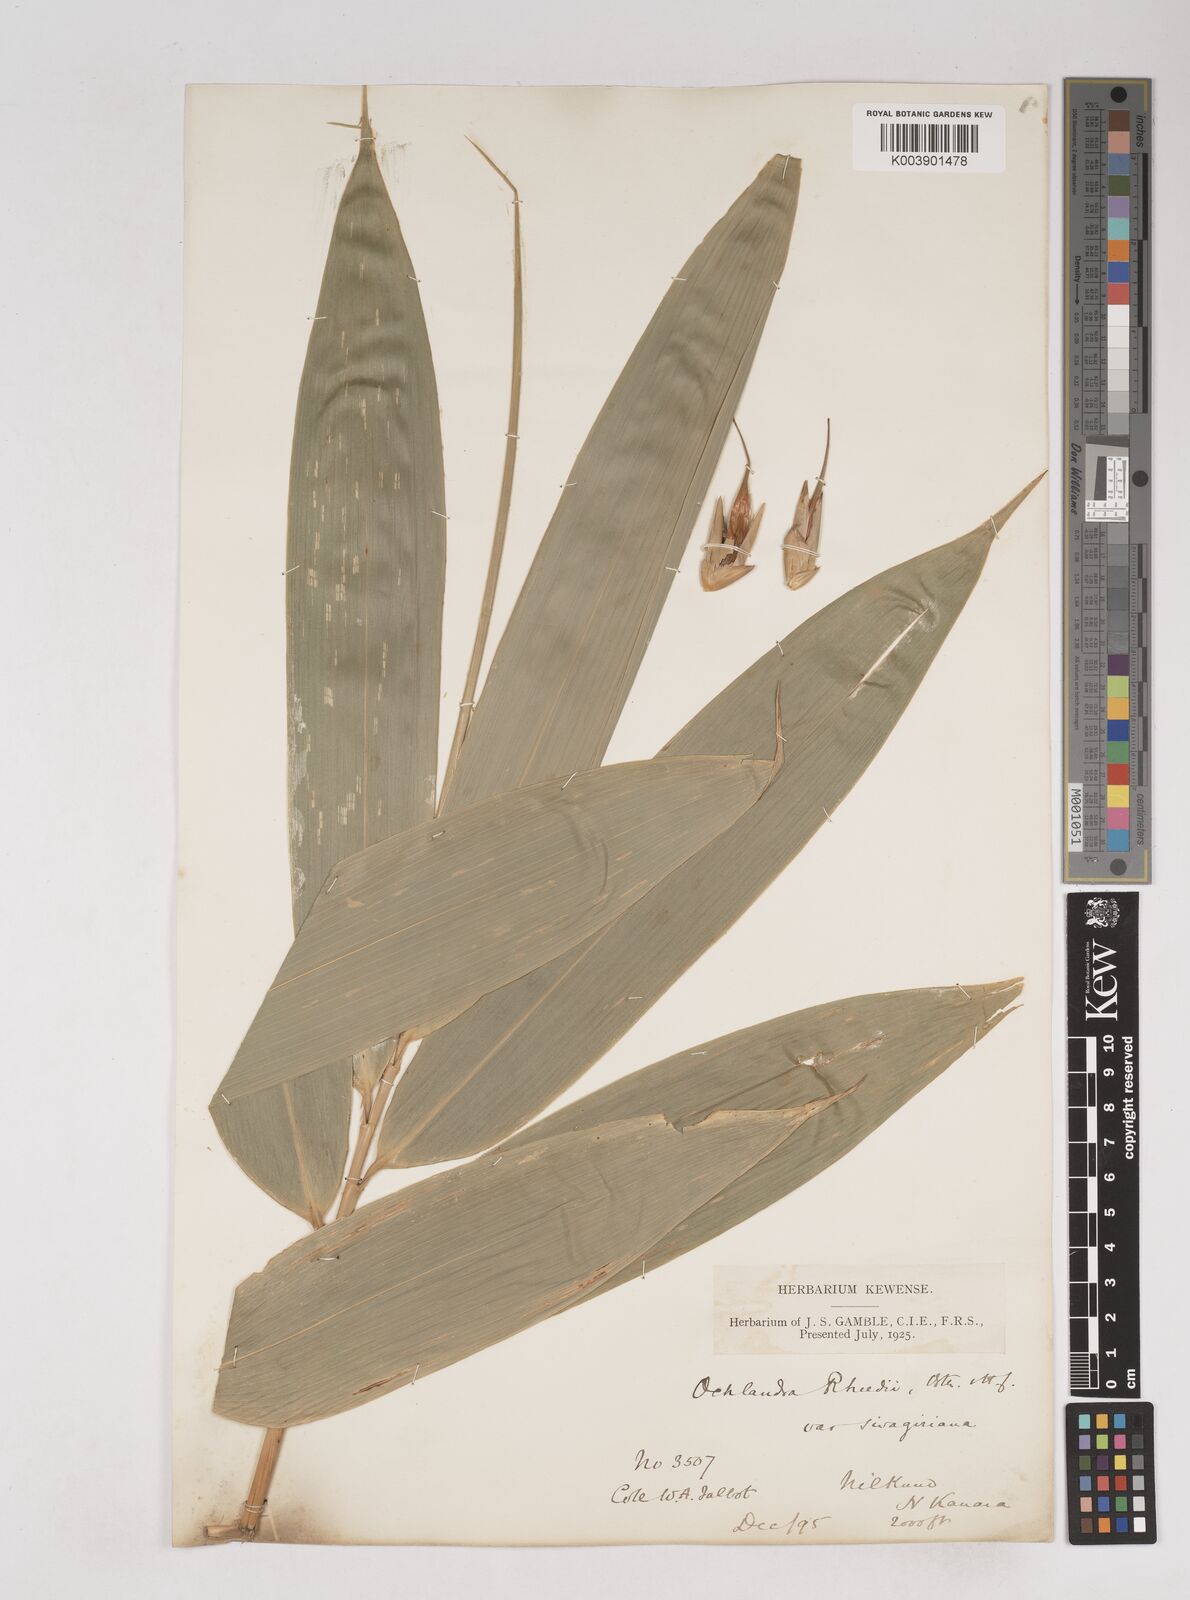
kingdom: Plantae
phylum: Tracheophyta
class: Liliopsida
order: Poales
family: Poaceae
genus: Ochlandra
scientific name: Ochlandra scriptoria
